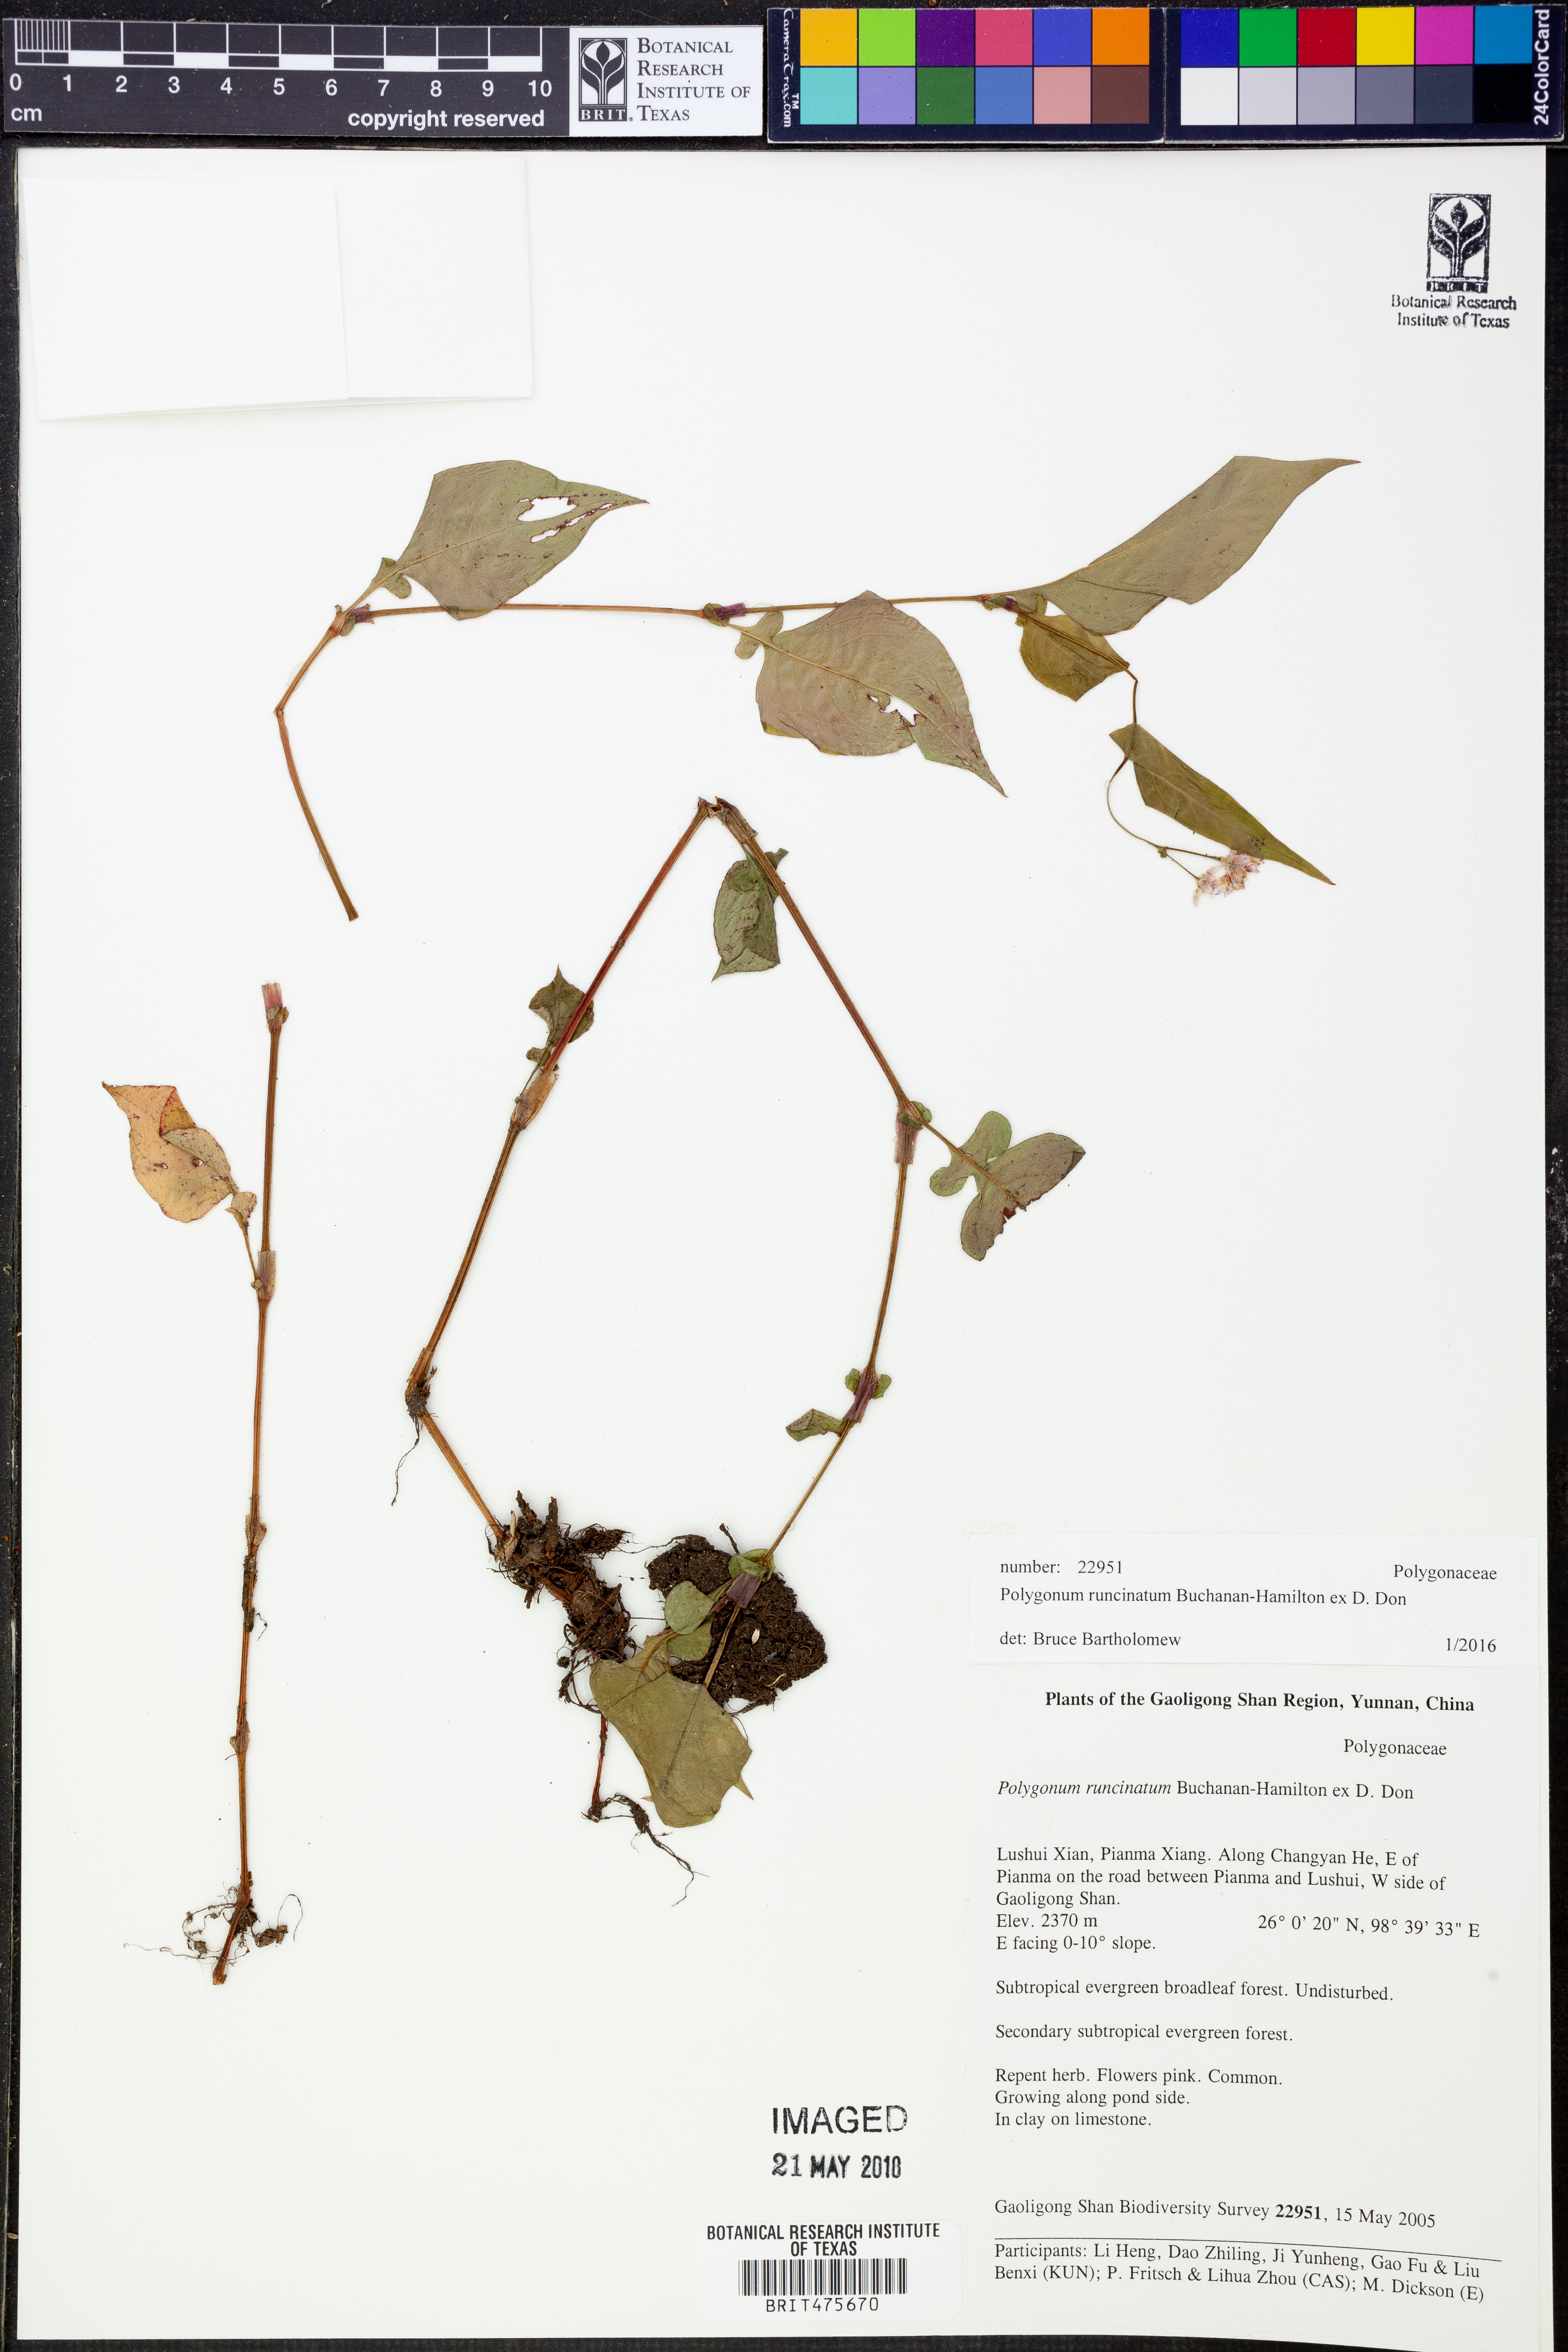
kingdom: Plantae
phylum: Tracheophyta
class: Magnoliopsida
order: Caryophyllales
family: Polygonaceae
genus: Persicaria
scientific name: Persicaria runcinata
